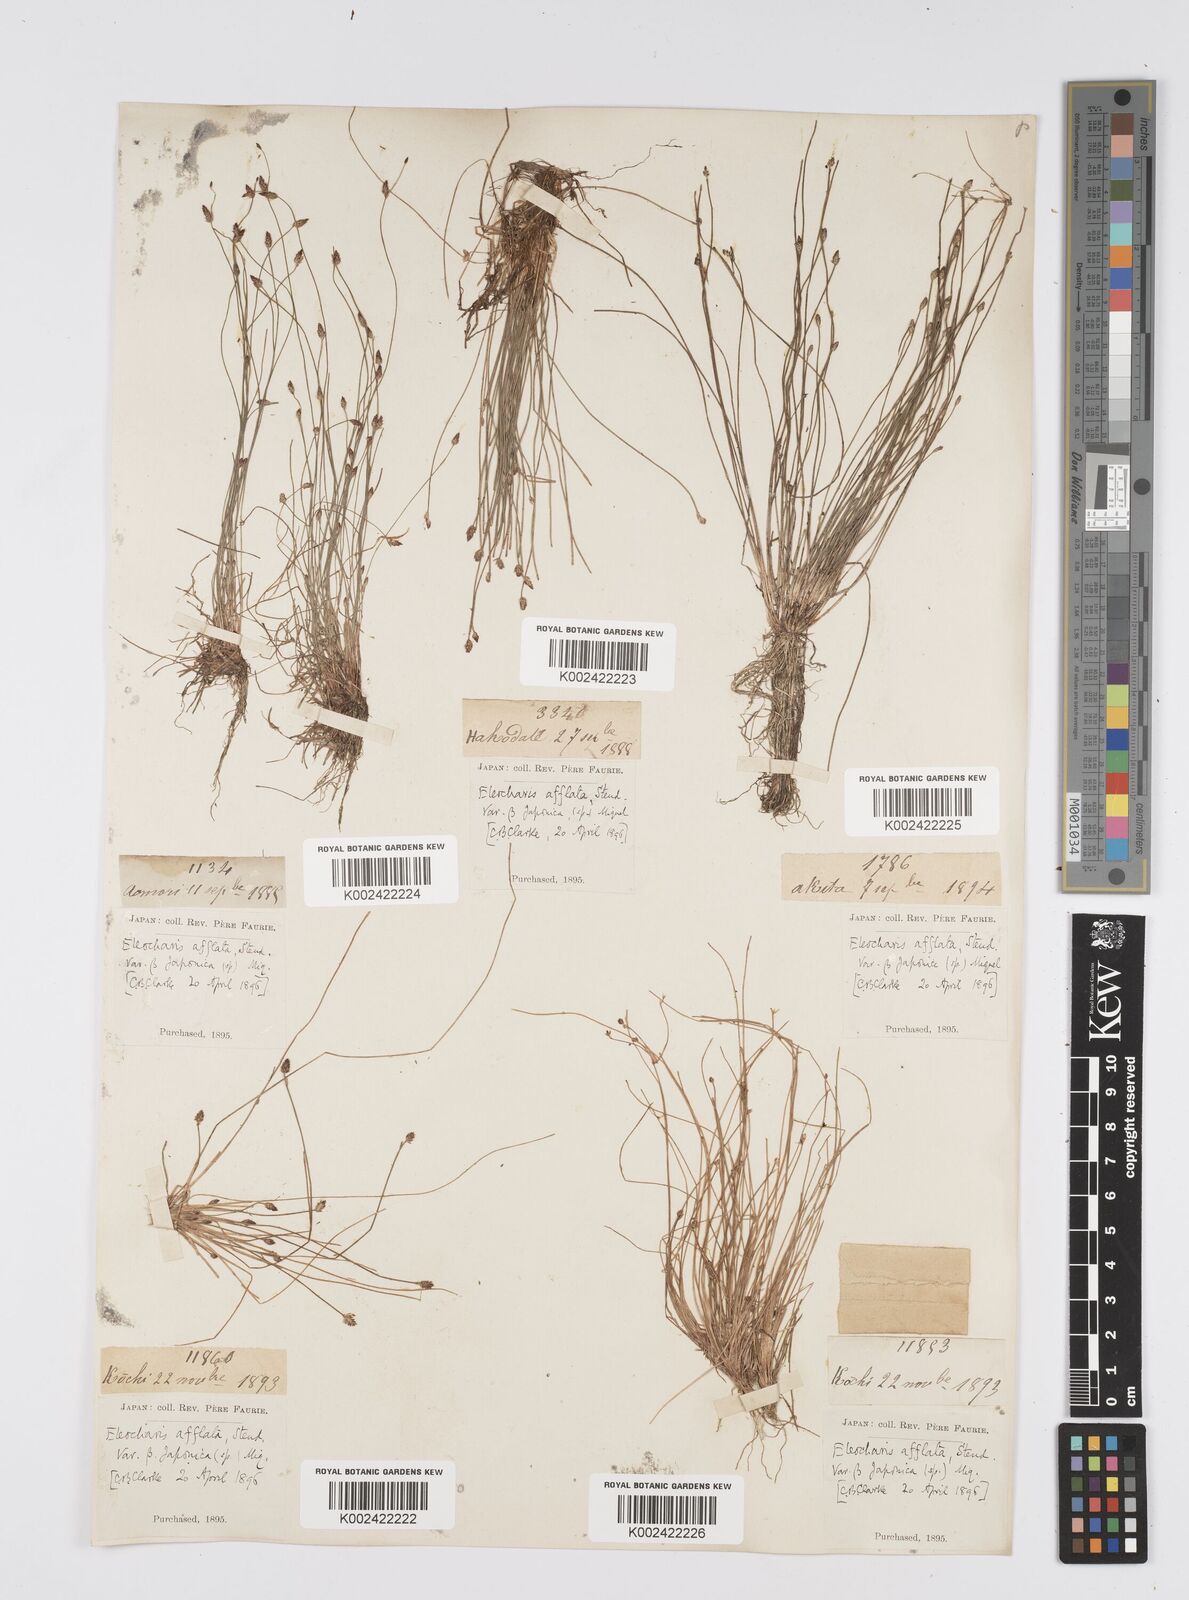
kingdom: Plantae
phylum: Tracheophyta
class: Liliopsida
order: Poales
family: Cyperaceae
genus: Eleocharis
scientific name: Eleocharis pellucida
